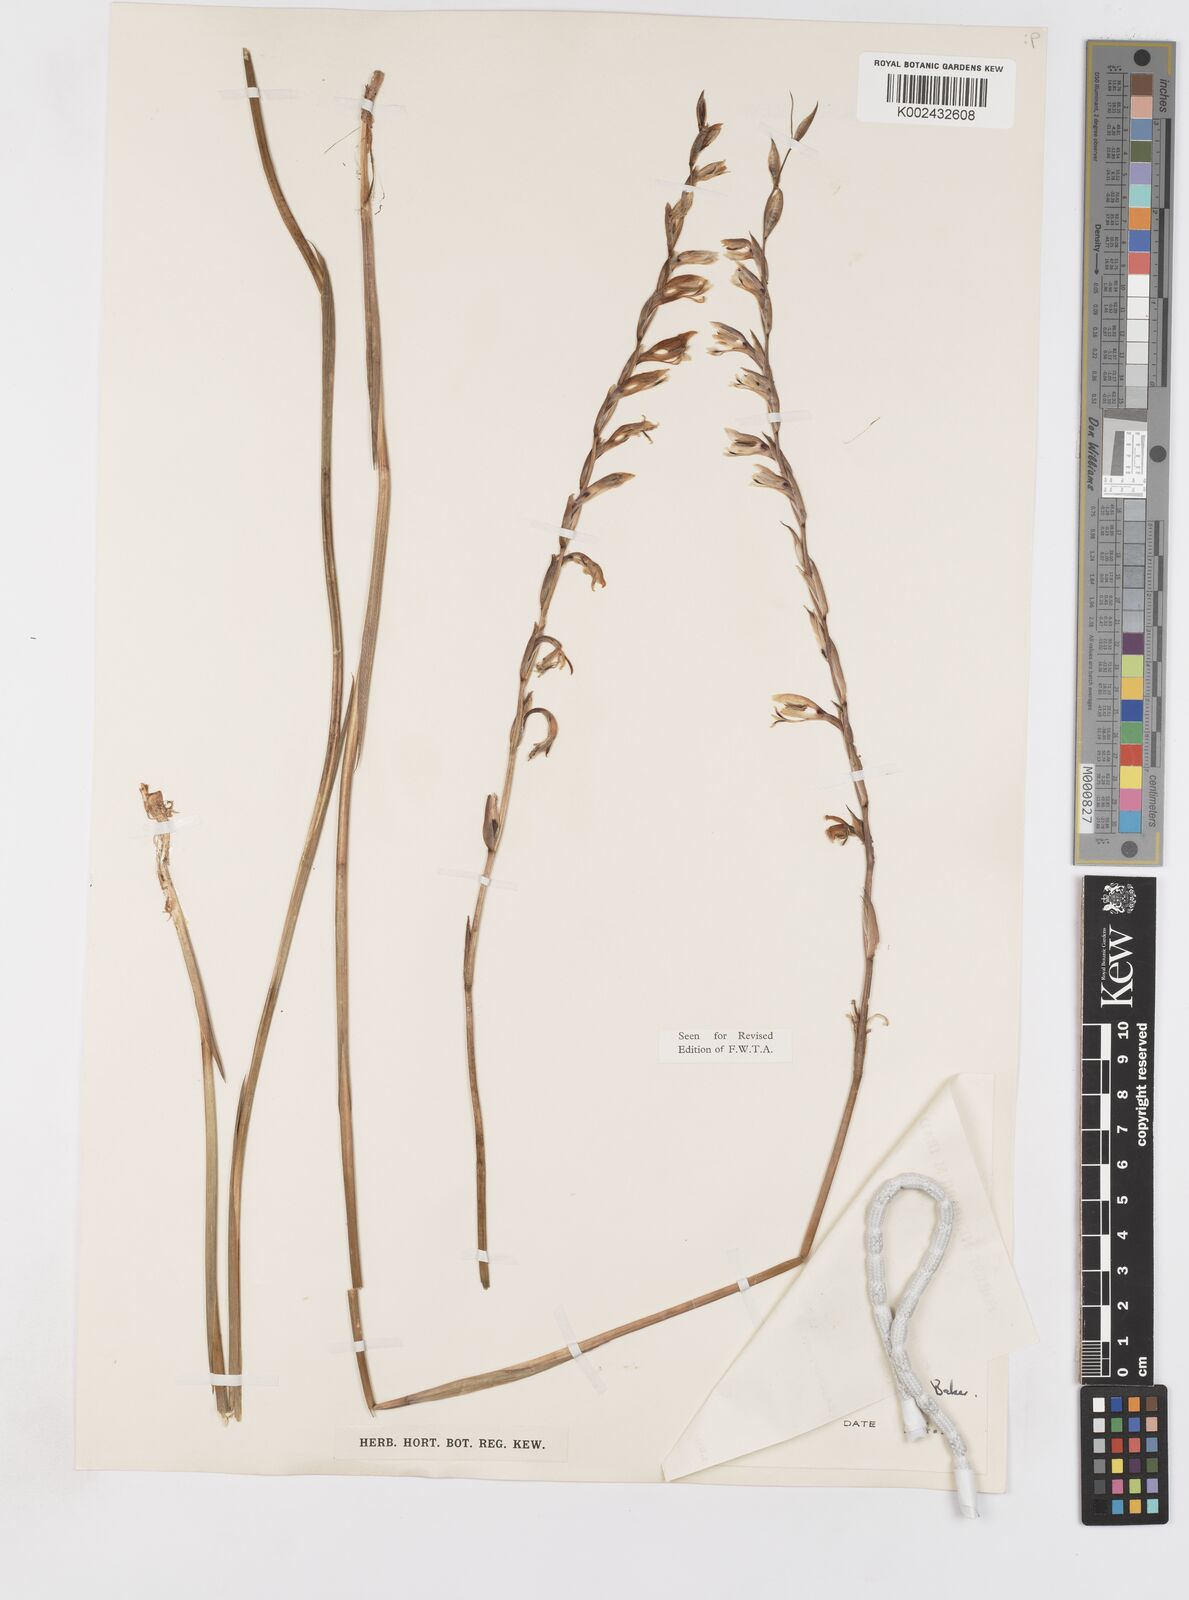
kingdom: Plantae
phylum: Tracheophyta
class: Liliopsida
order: Asparagales
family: Iridaceae
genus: Gladiolus
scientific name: Gladiolus unguiculatus
